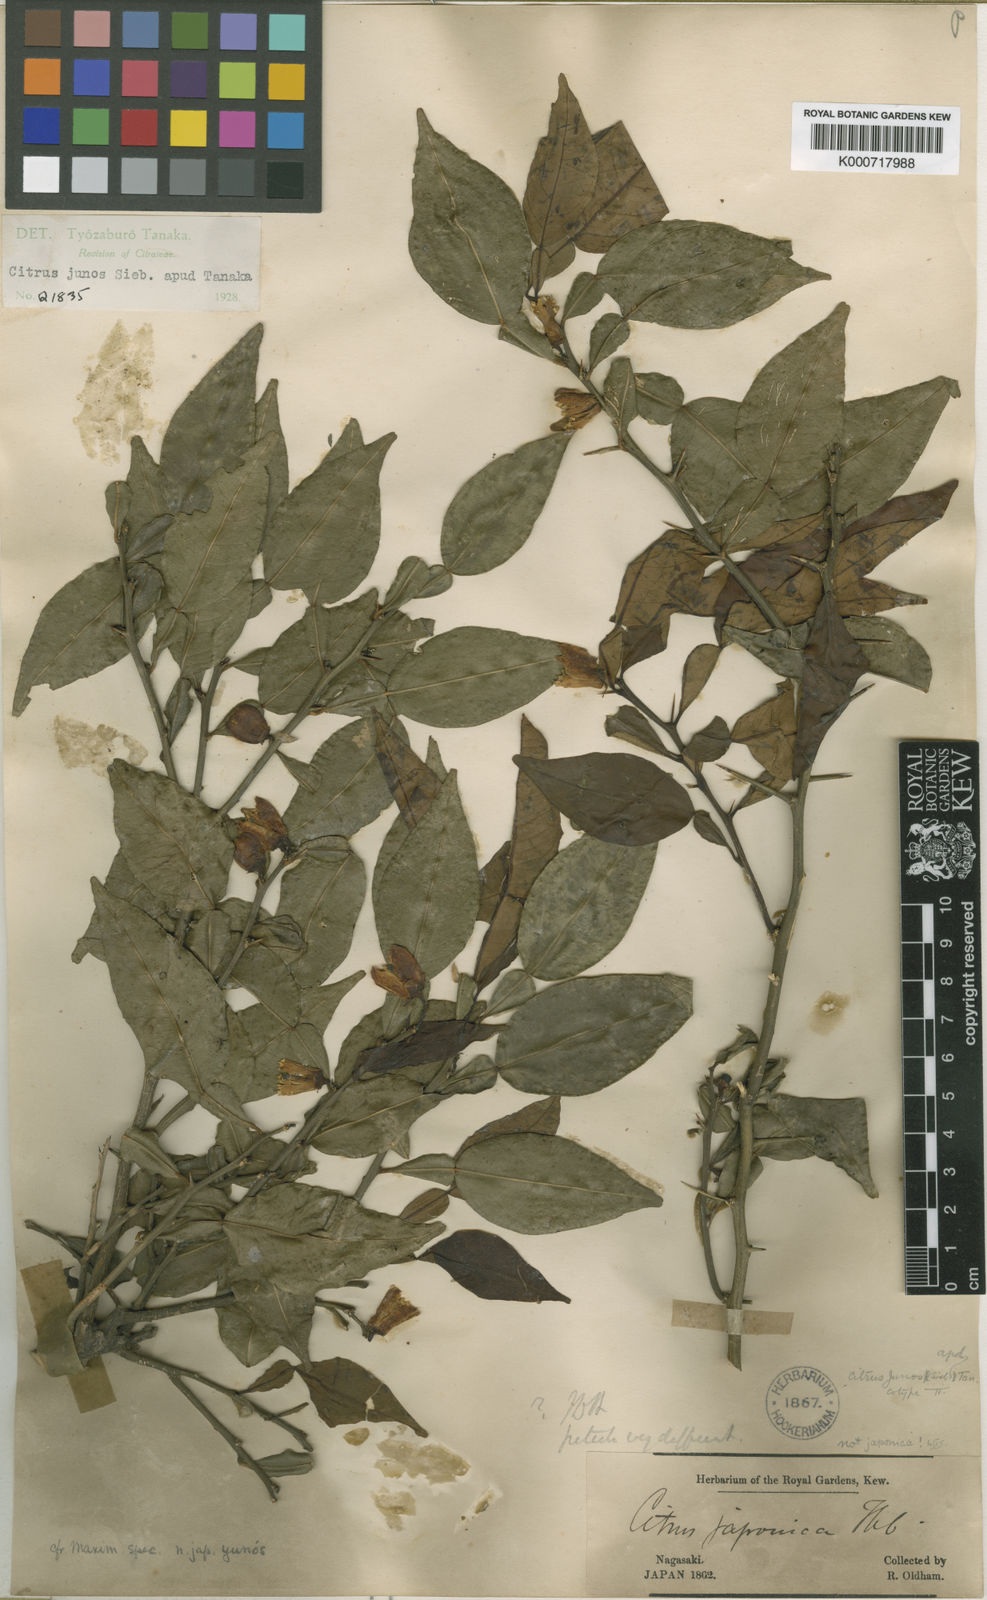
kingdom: Plantae
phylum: Tracheophyta
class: Magnoliopsida
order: Sapindales
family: Rutaceae
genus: Citrus
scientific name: Citrus junos
